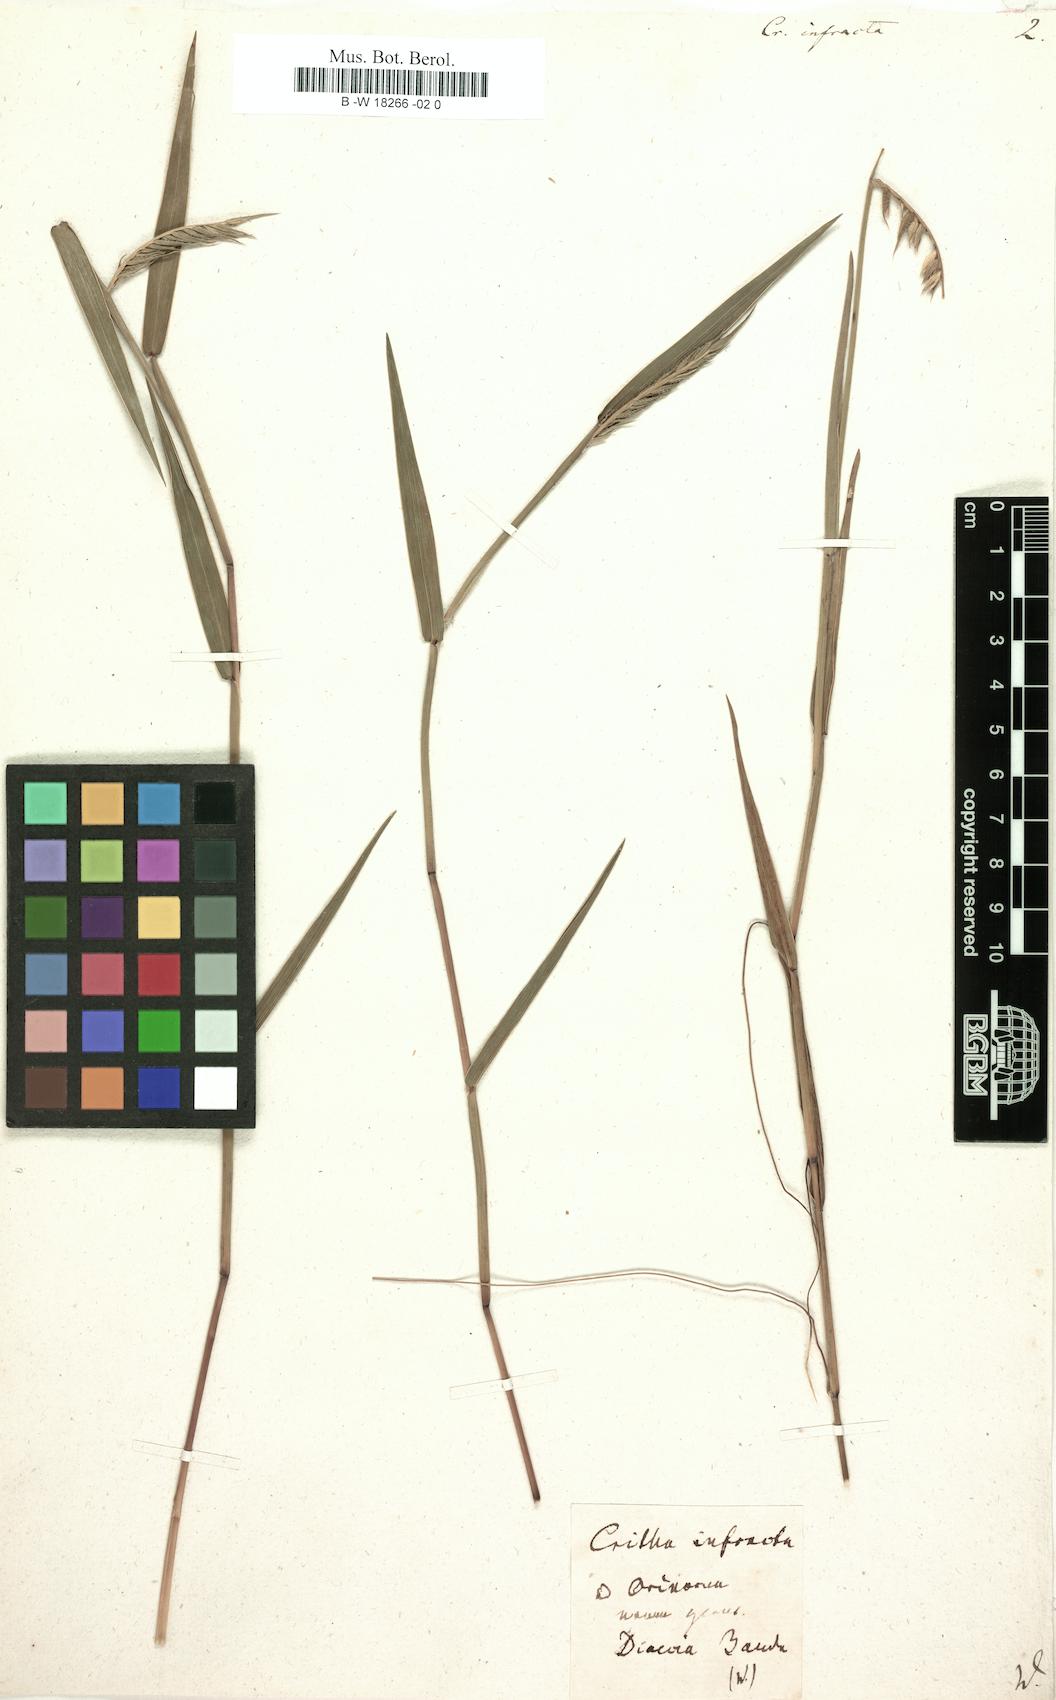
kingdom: Plantae
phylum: Tracheophyta
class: Liliopsida
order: Poales
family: Poaceae
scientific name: Poaceae
